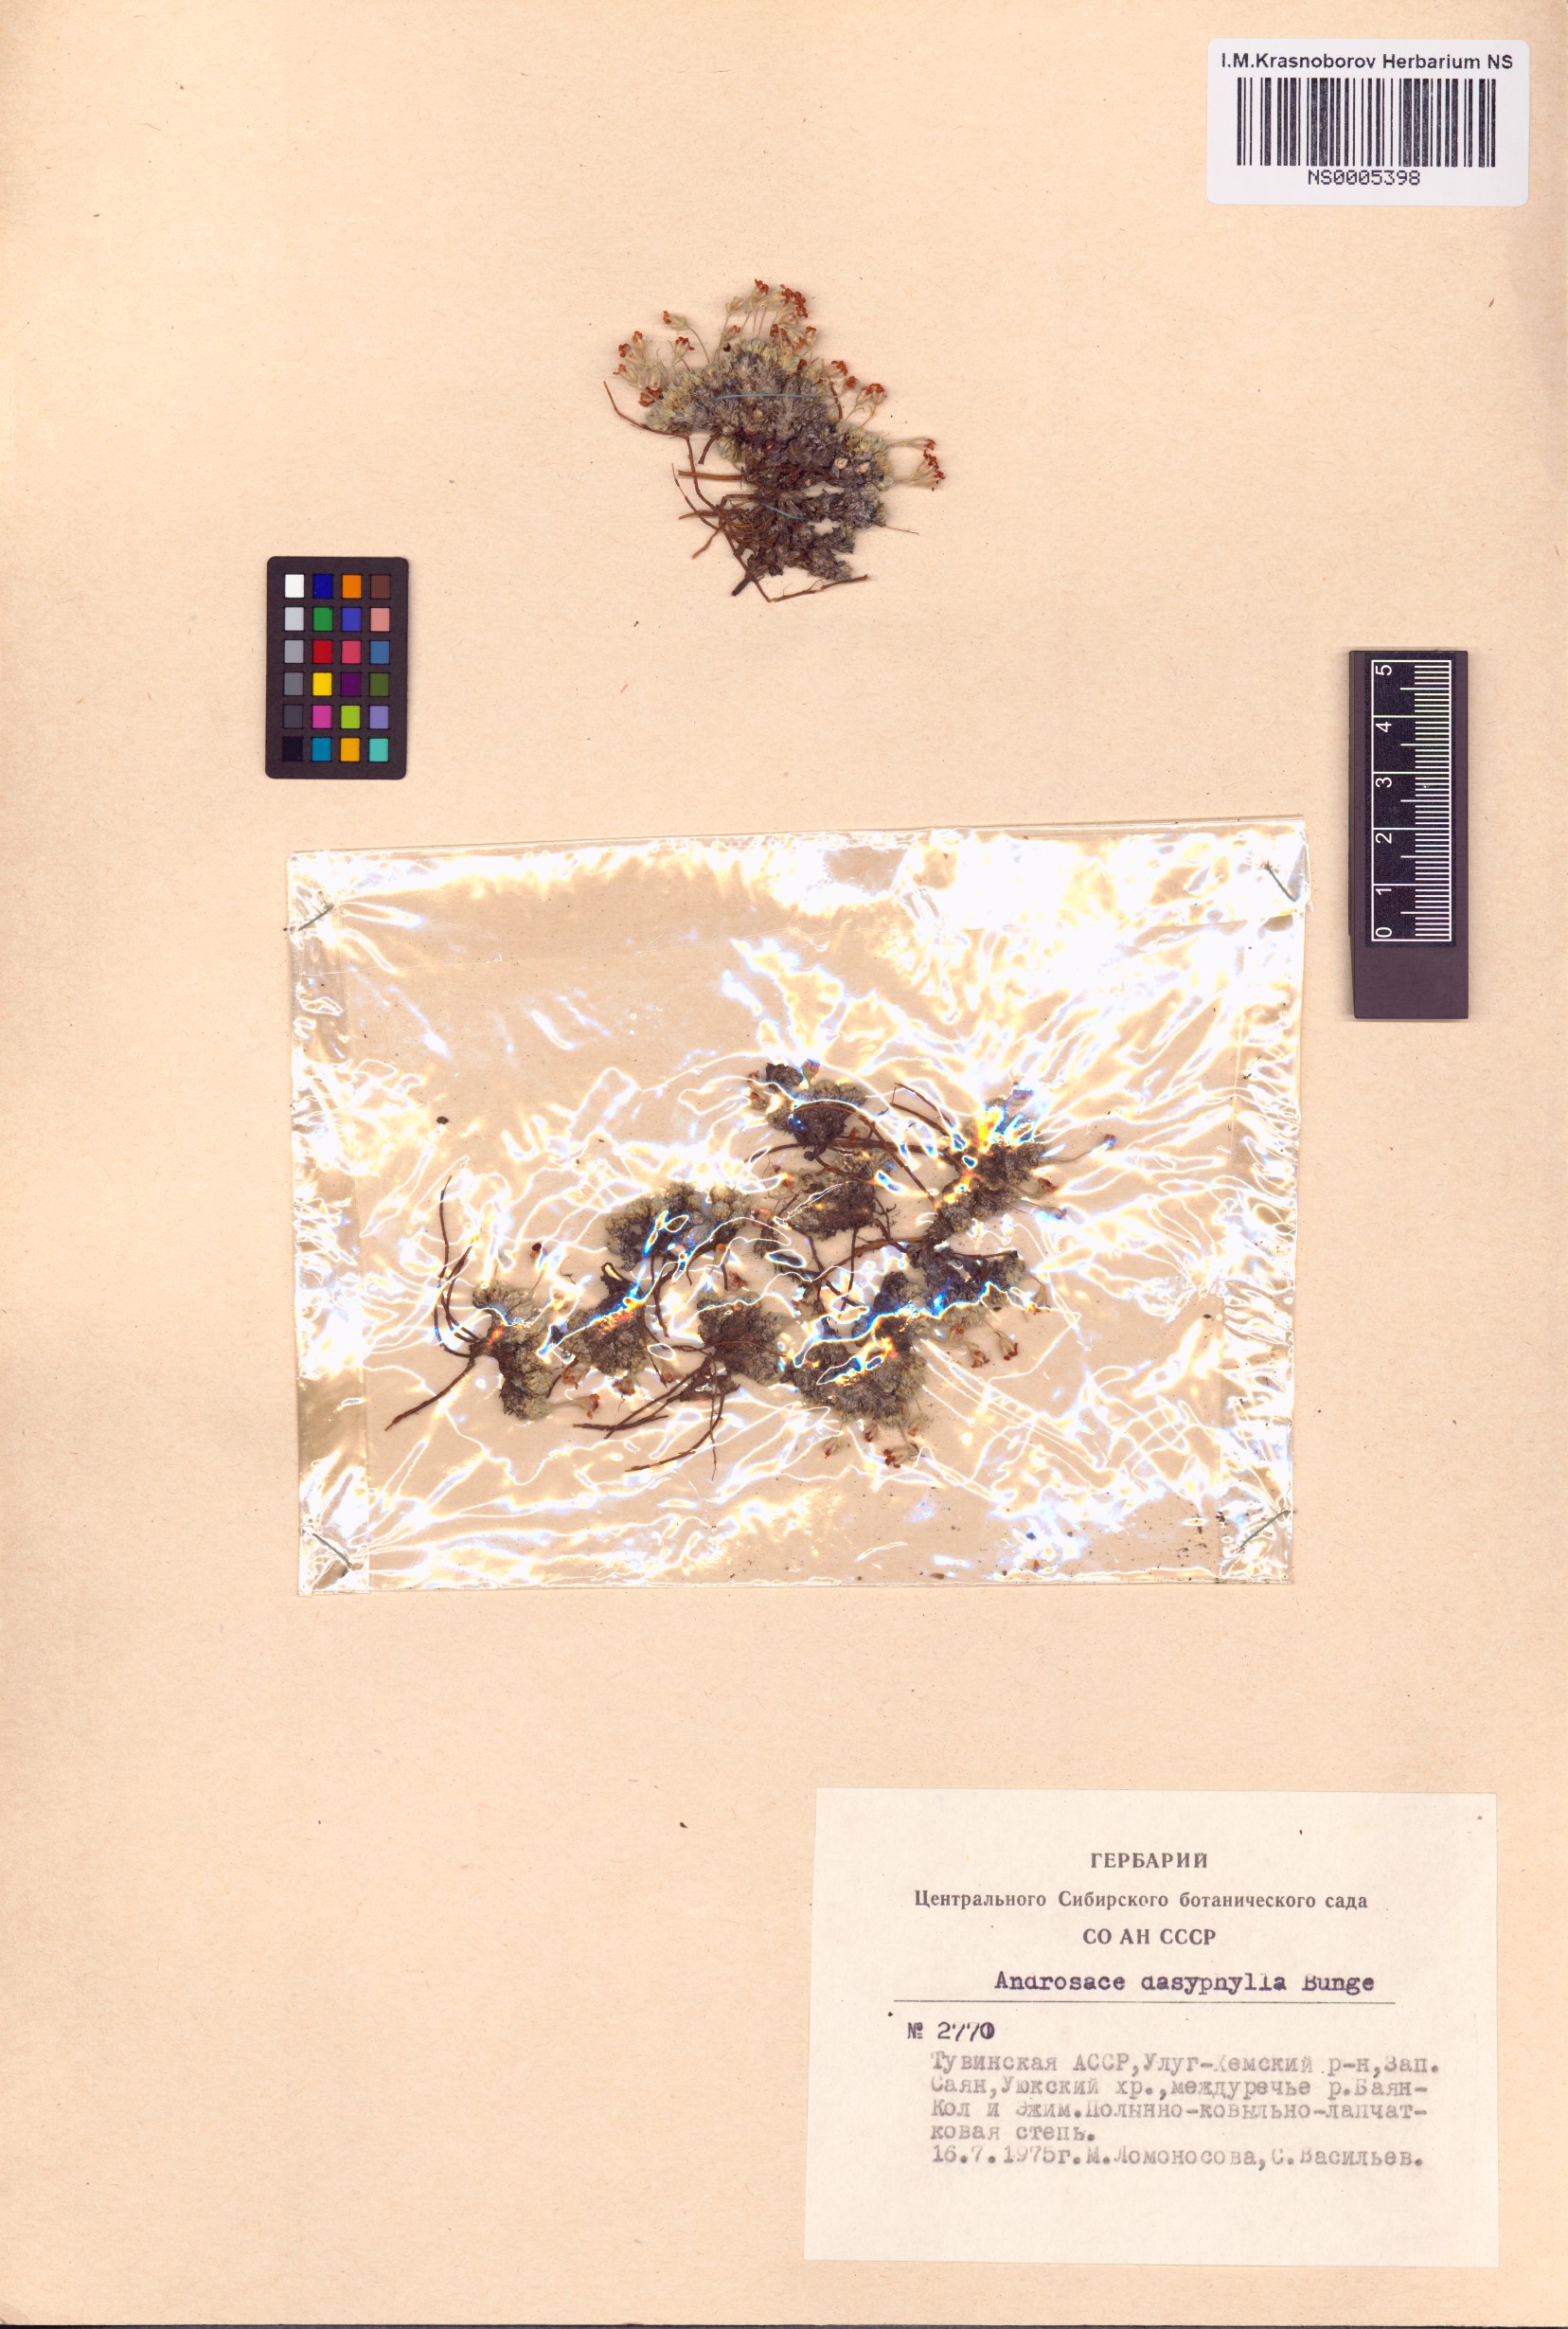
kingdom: Plantae
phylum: Tracheophyta
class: Magnoliopsida
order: Ericales
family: Primulaceae
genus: Androsace
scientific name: Androsace dasyphylla
